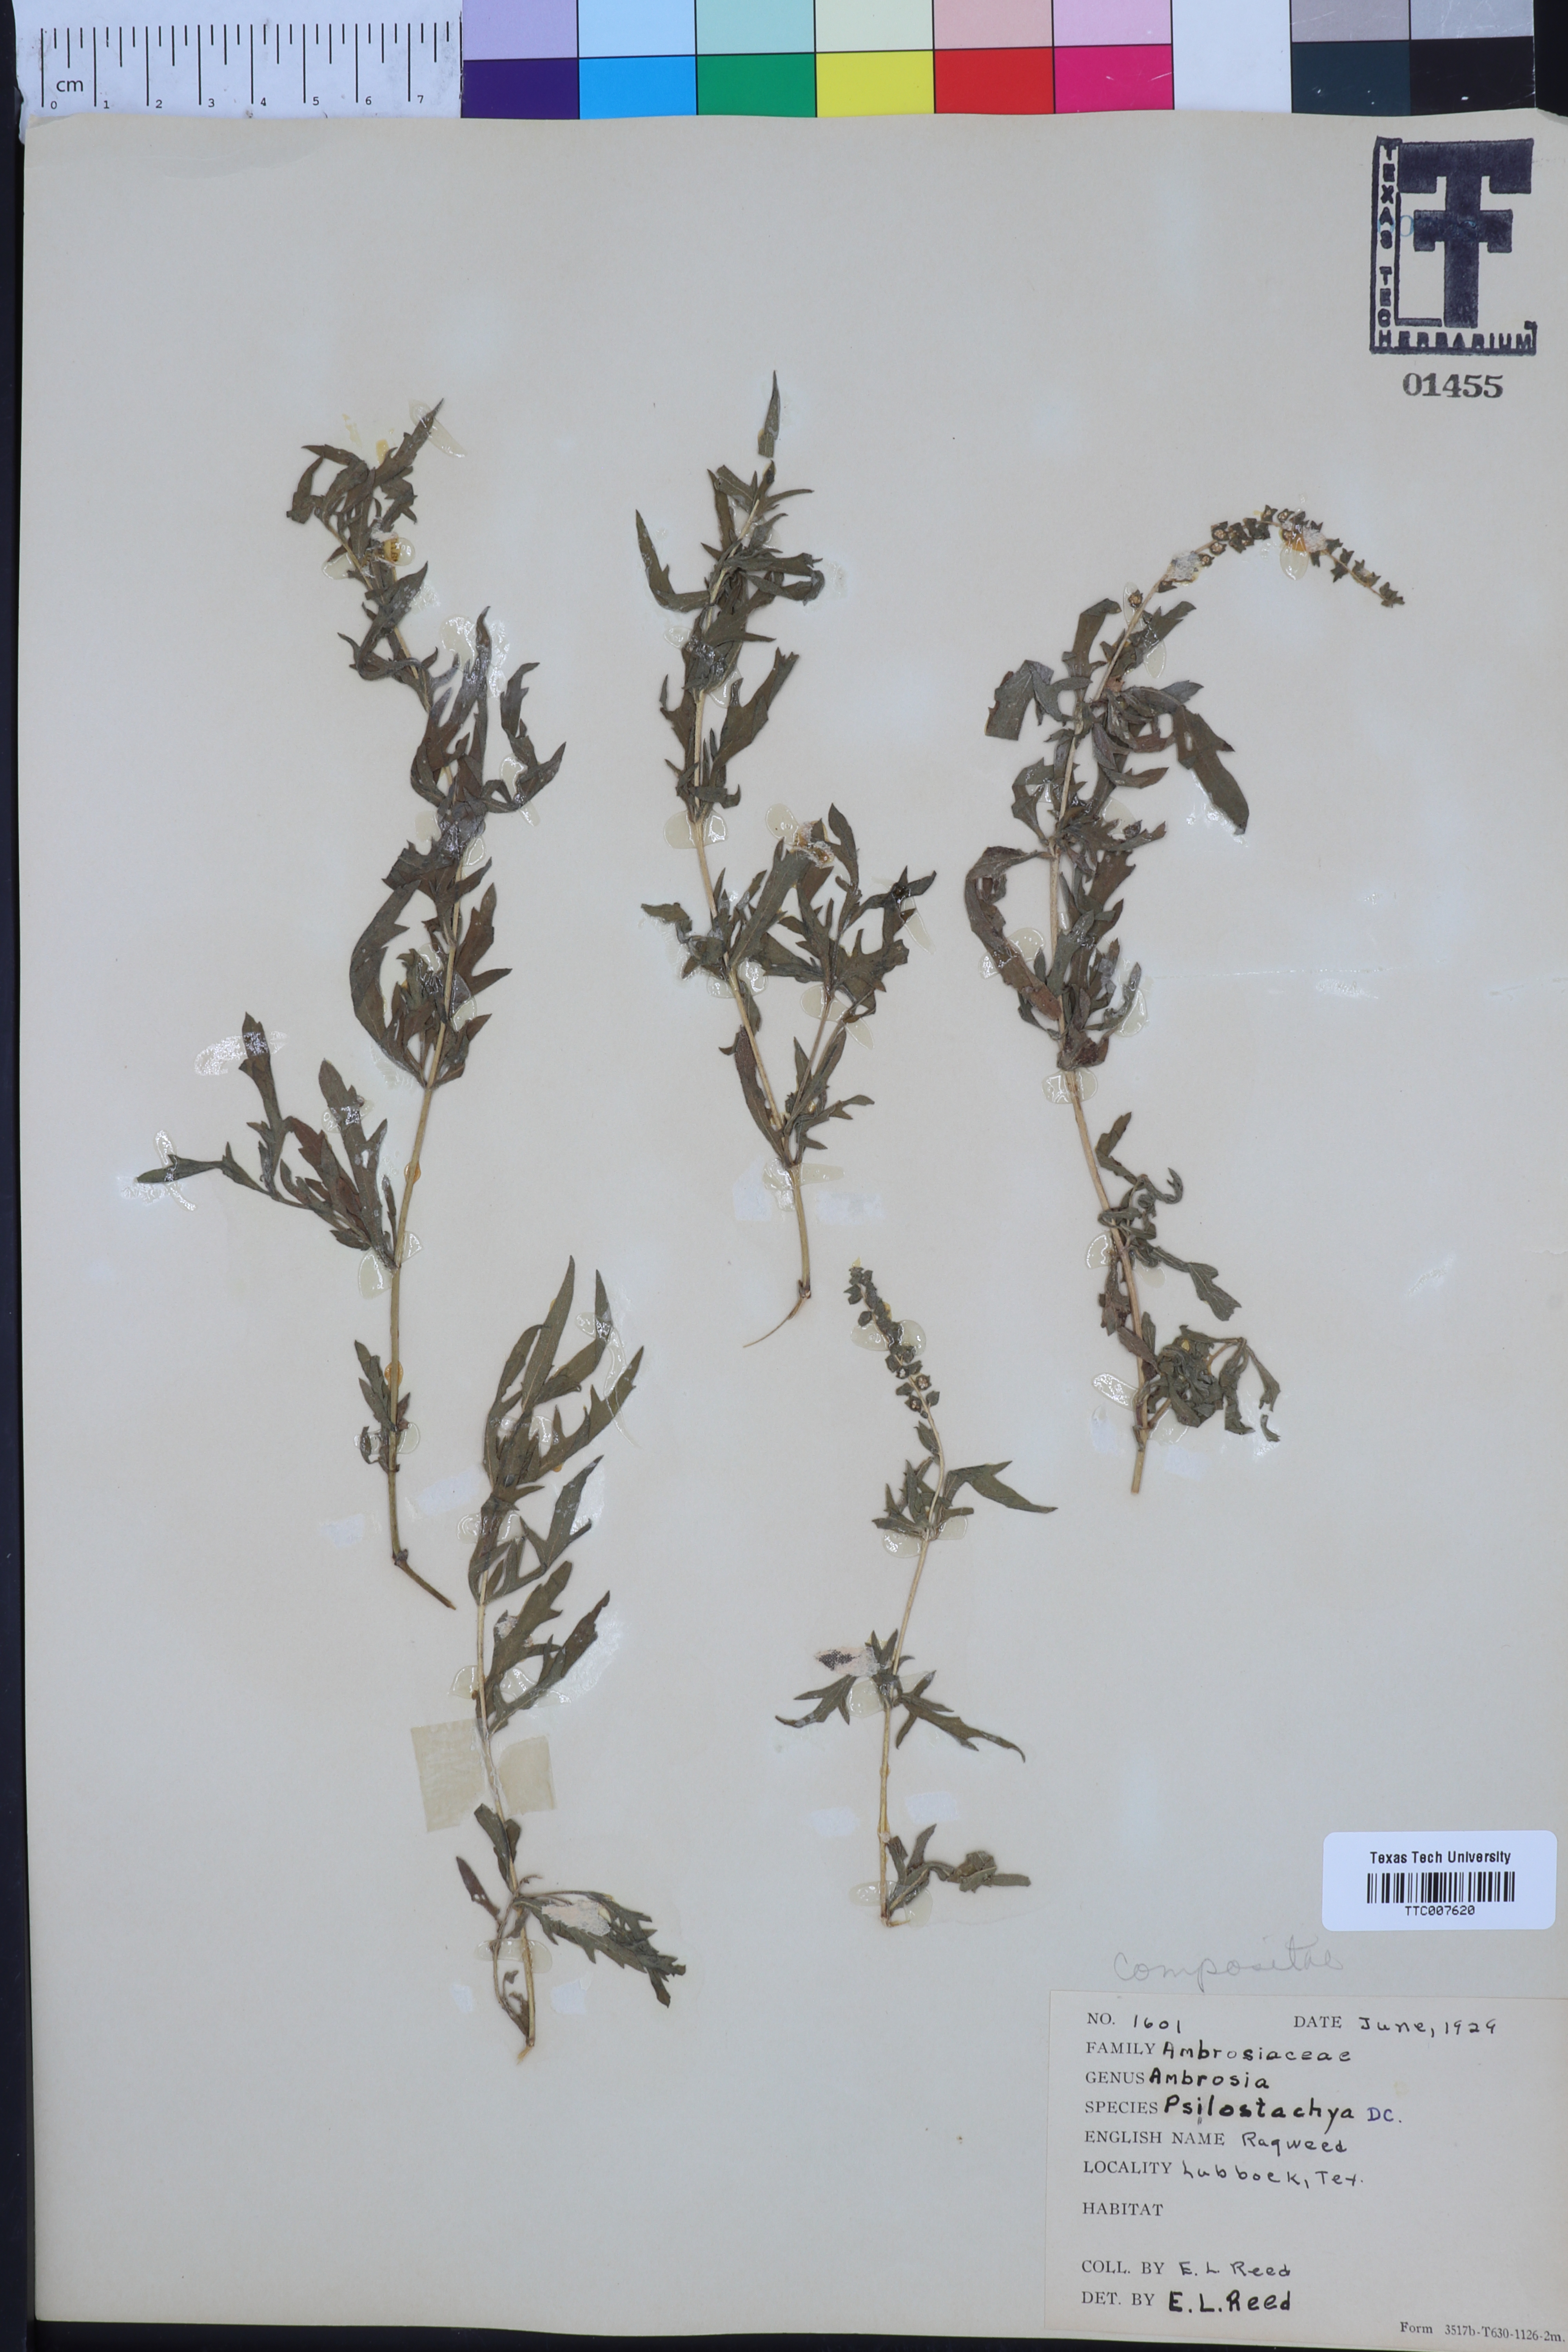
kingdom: Plantae
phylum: Tracheophyta
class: Magnoliopsida
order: Asterales
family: Asteraceae
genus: Ambrosia
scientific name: Ambrosia psilostachya
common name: Perennial ragweed
